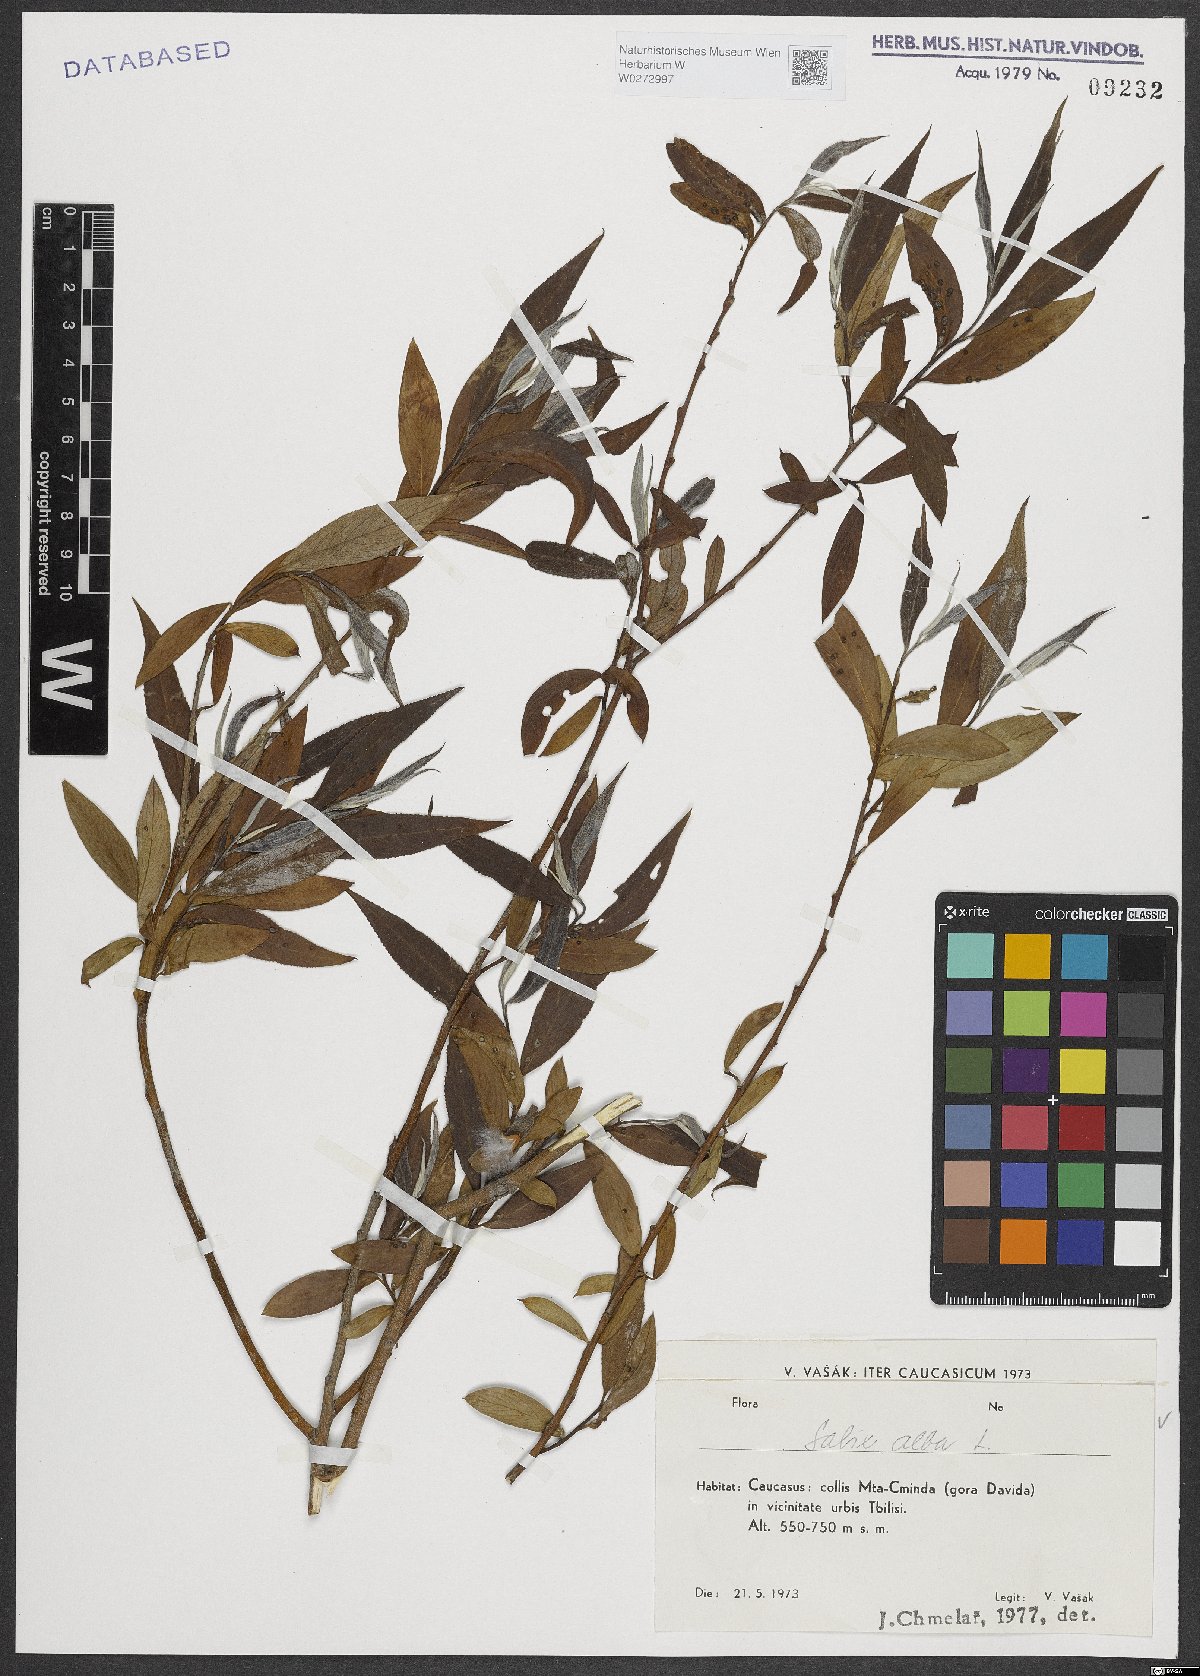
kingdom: Plantae
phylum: Tracheophyta
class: Magnoliopsida
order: Malpighiales
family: Salicaceae
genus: Salix
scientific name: Salix alba
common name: White willow
